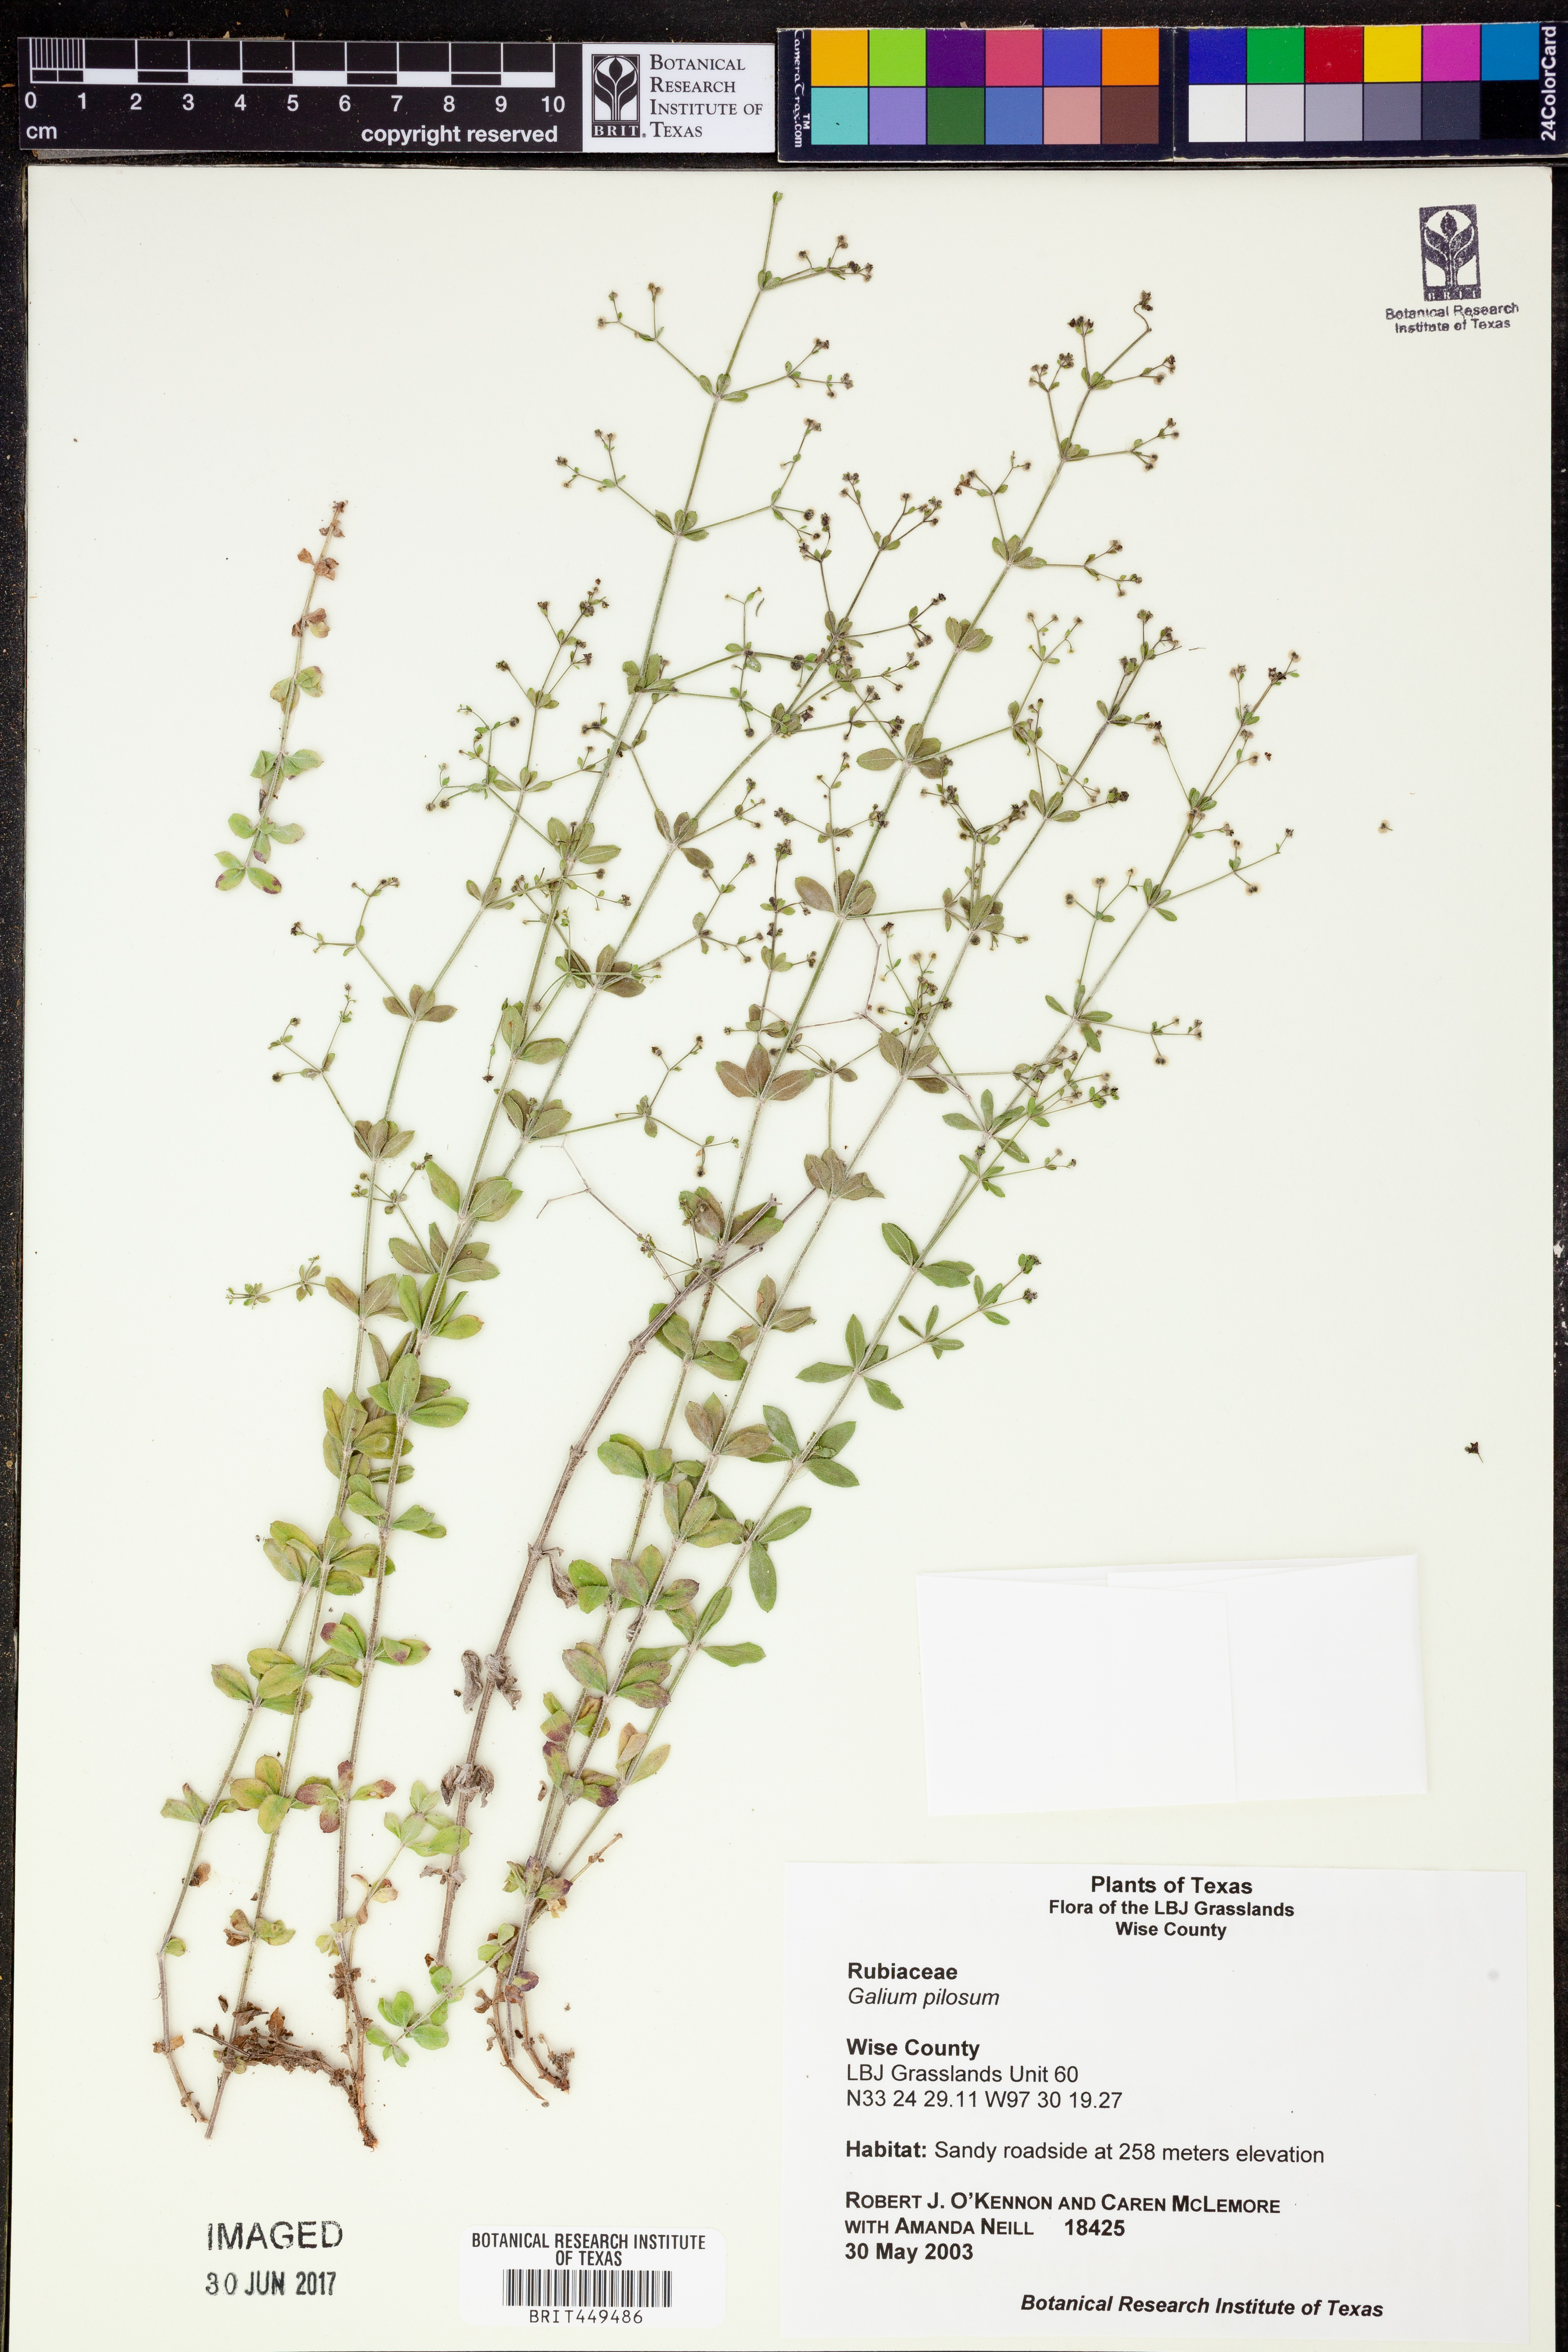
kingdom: Plantae
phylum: Tracheophyta
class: Magnoliopsida
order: Gentianales
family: Rubiaceae
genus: Galium
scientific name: Galium pilosum
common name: Hairy bedstraw
